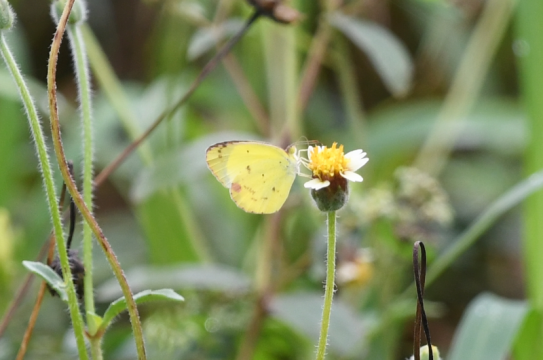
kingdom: Animalia
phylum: Arthropoda
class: Insecta
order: Lepidoptera
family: Pieridae
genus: Pyrisitia
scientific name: Pyrisitia lisa
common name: Little Yellow
